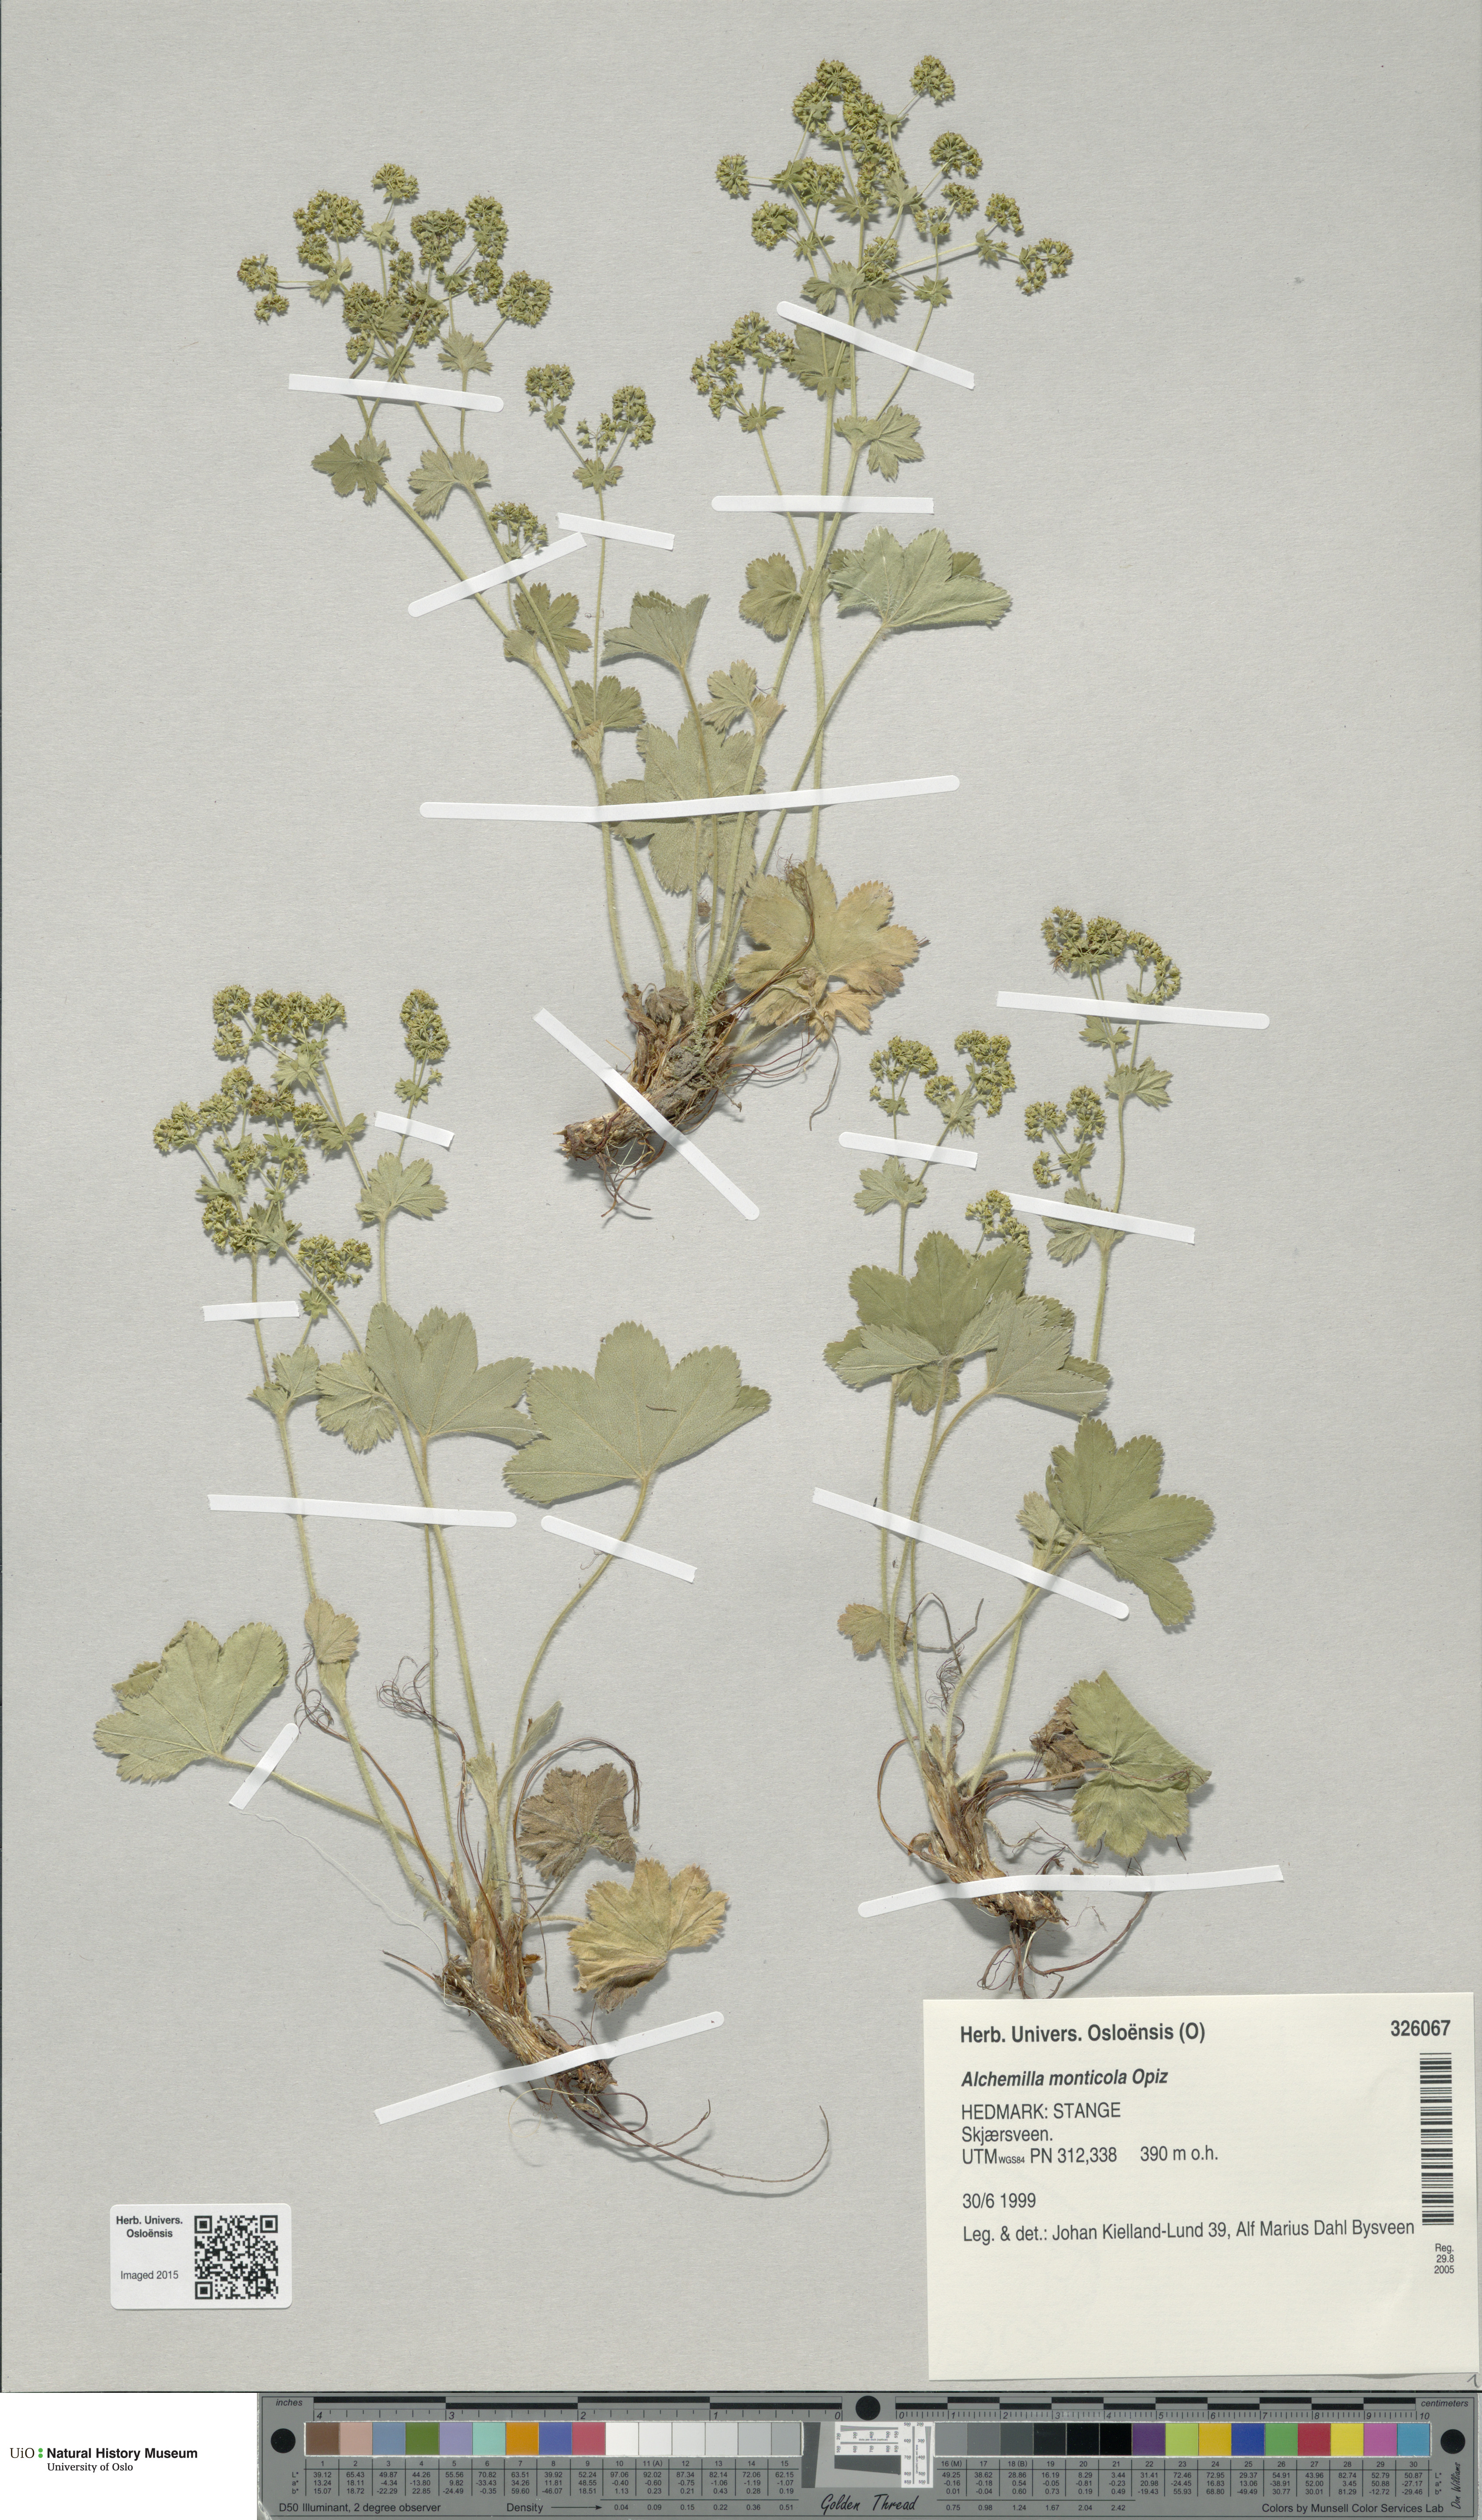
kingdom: Plantae
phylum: Tracheophyta
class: Magnoliopsida
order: Rosales
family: Rosaceae
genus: Alchemilla
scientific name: Alchemilla monticola
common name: Hairy lady's mantle
